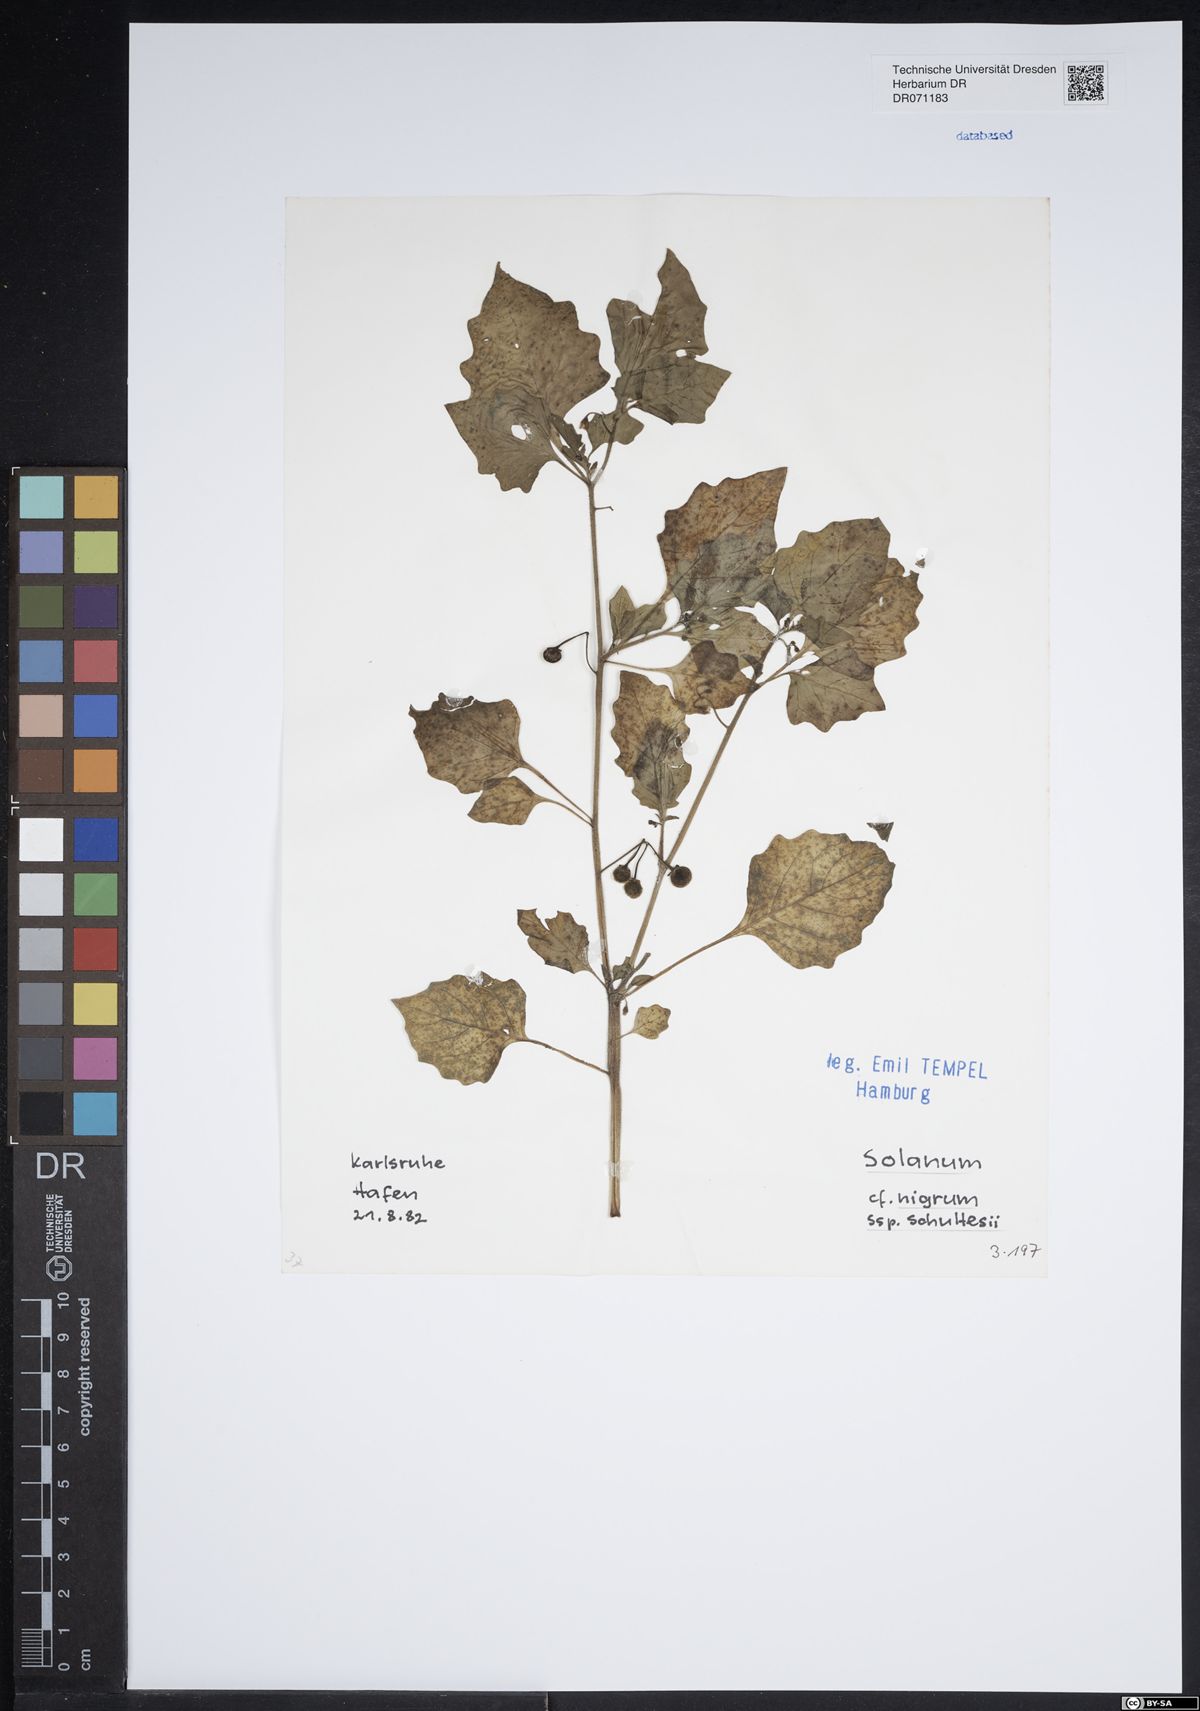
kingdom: Plantae
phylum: Tracheophyta
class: Magnoliopsida
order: Solanales
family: Solanaceae
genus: Solanum
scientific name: Solanum decipiens
